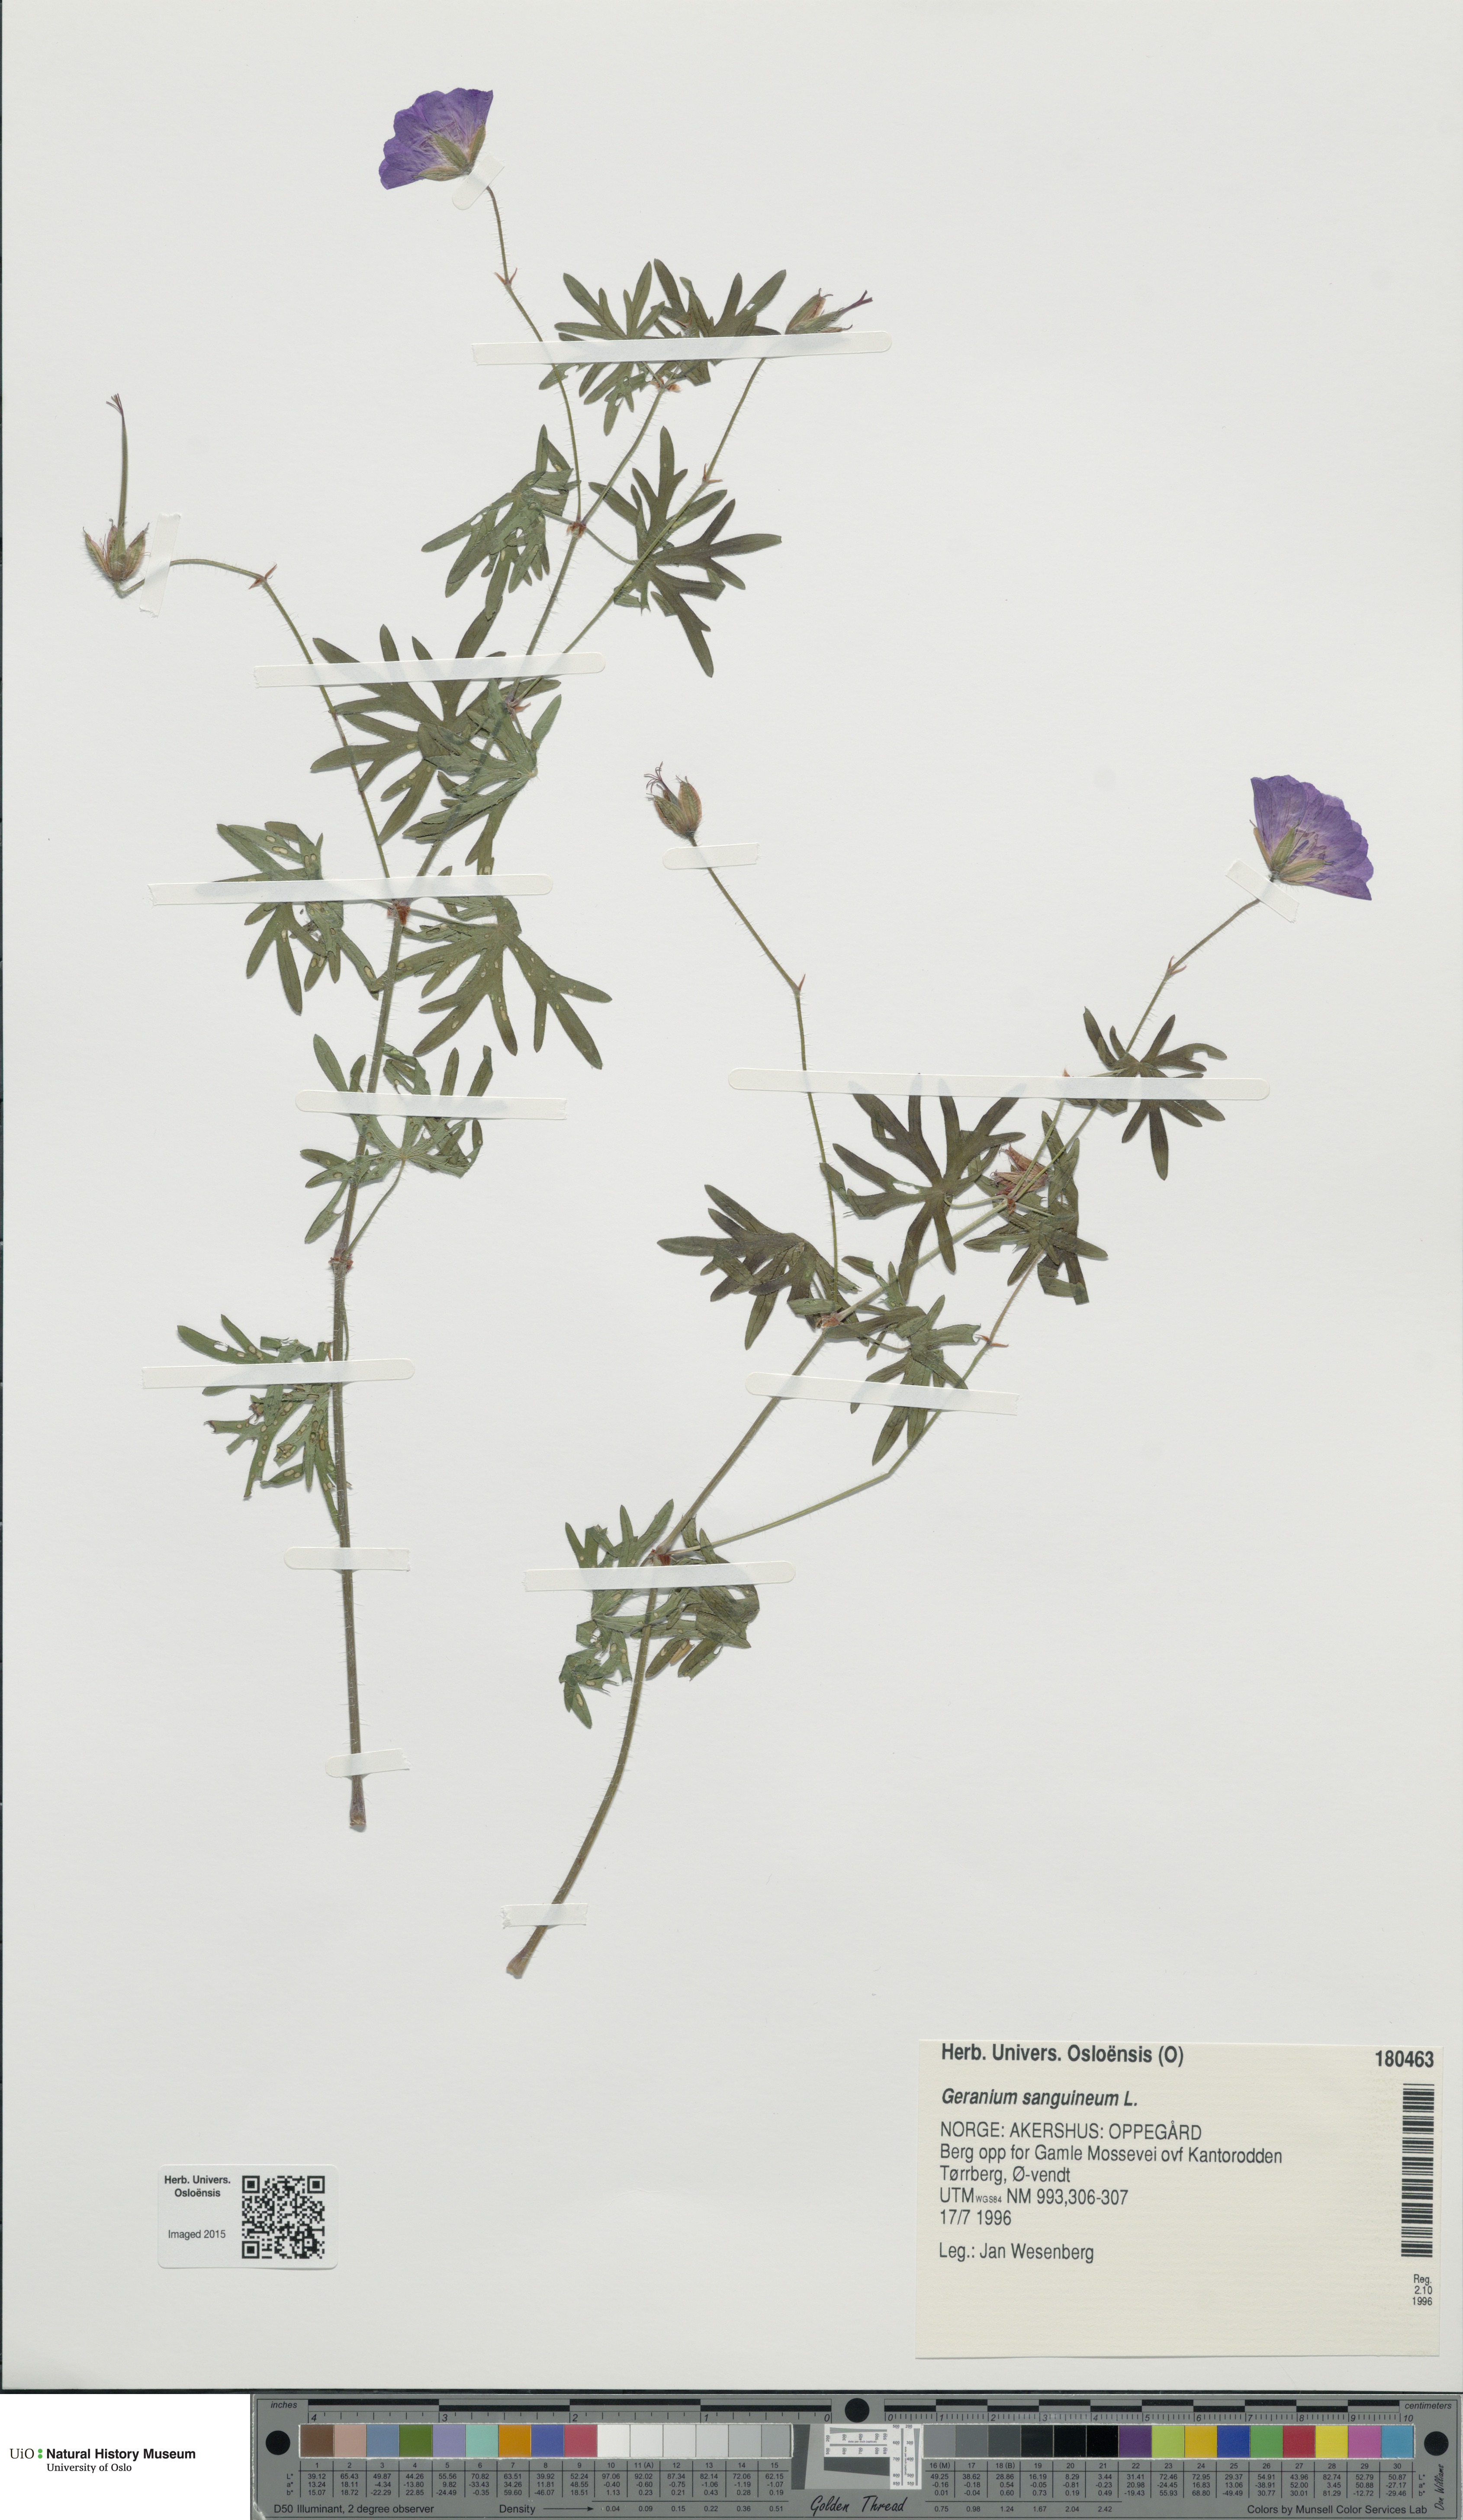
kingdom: Plantae
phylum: Tracheophyta
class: Magnoliopsida
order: Geraniales
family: Geraniaceae
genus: Geranium
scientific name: Geranium sanguineum
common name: Bloody crane's-bill
